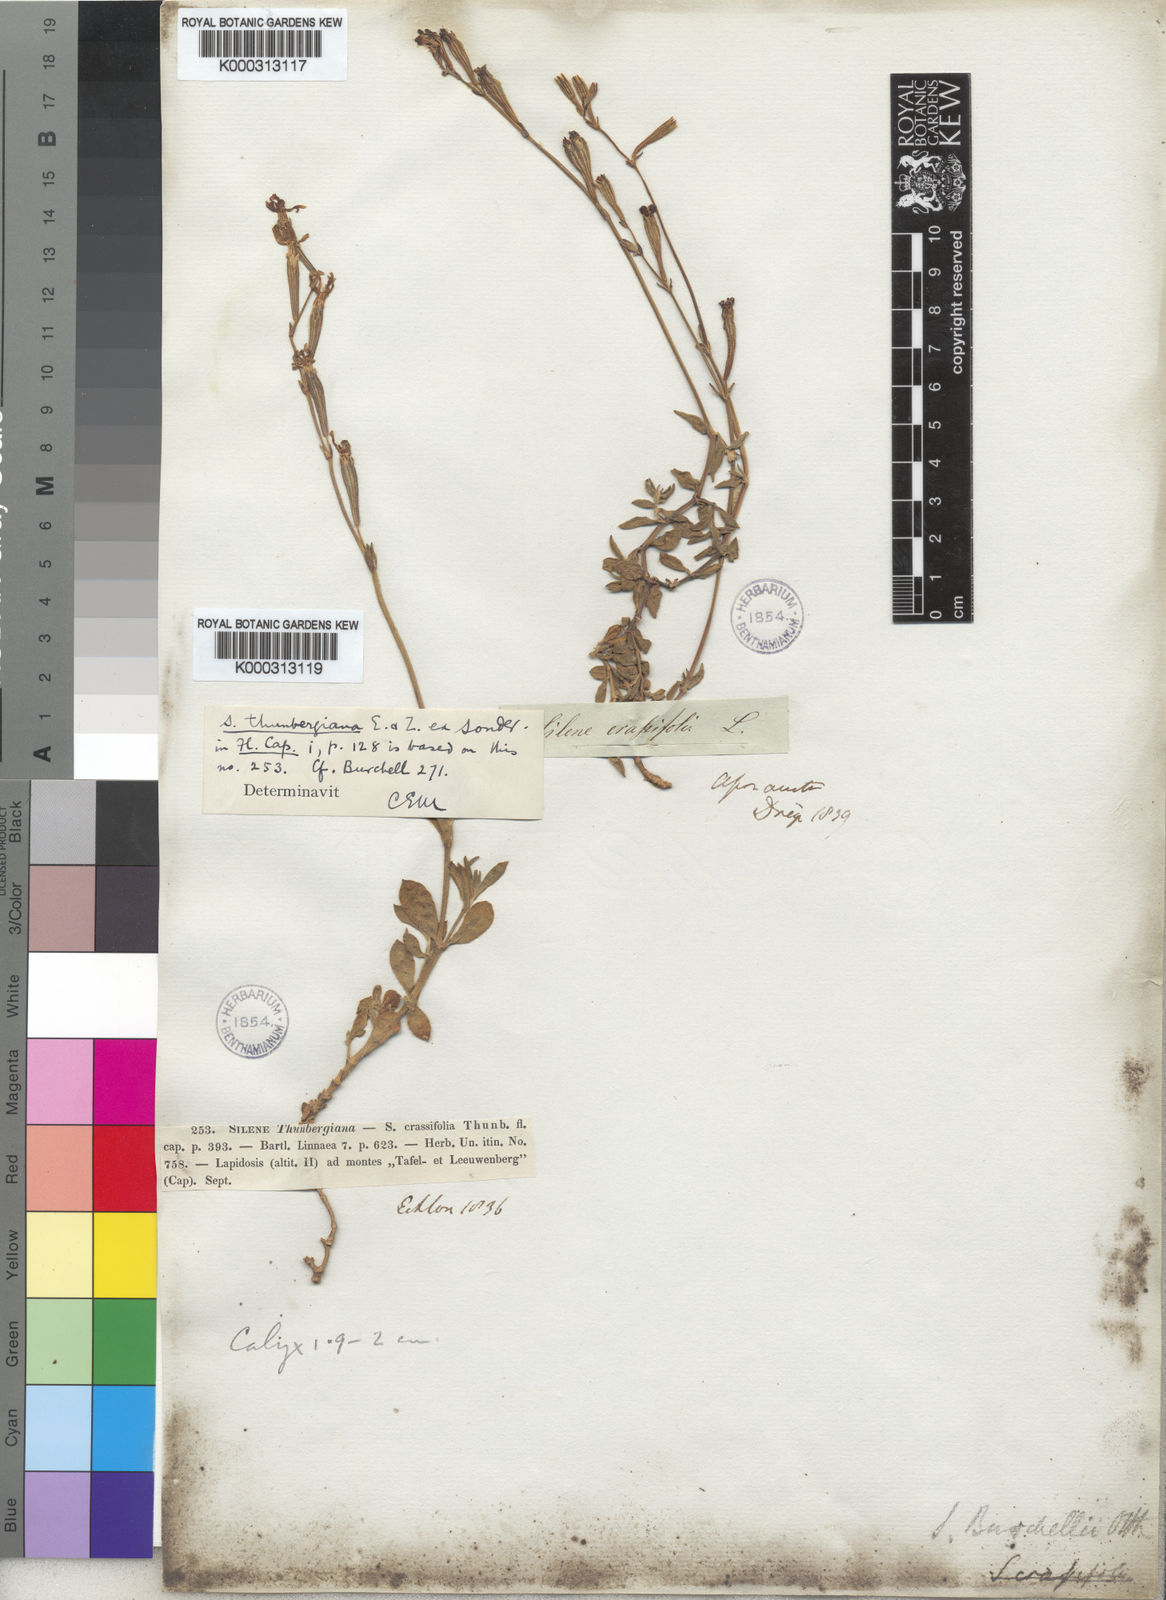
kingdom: Plantae
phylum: Tracheophyta
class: Magnoliopsida
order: Caryophyllales
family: Caryophyllaceae
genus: Silene
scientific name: Silene crassifolia
